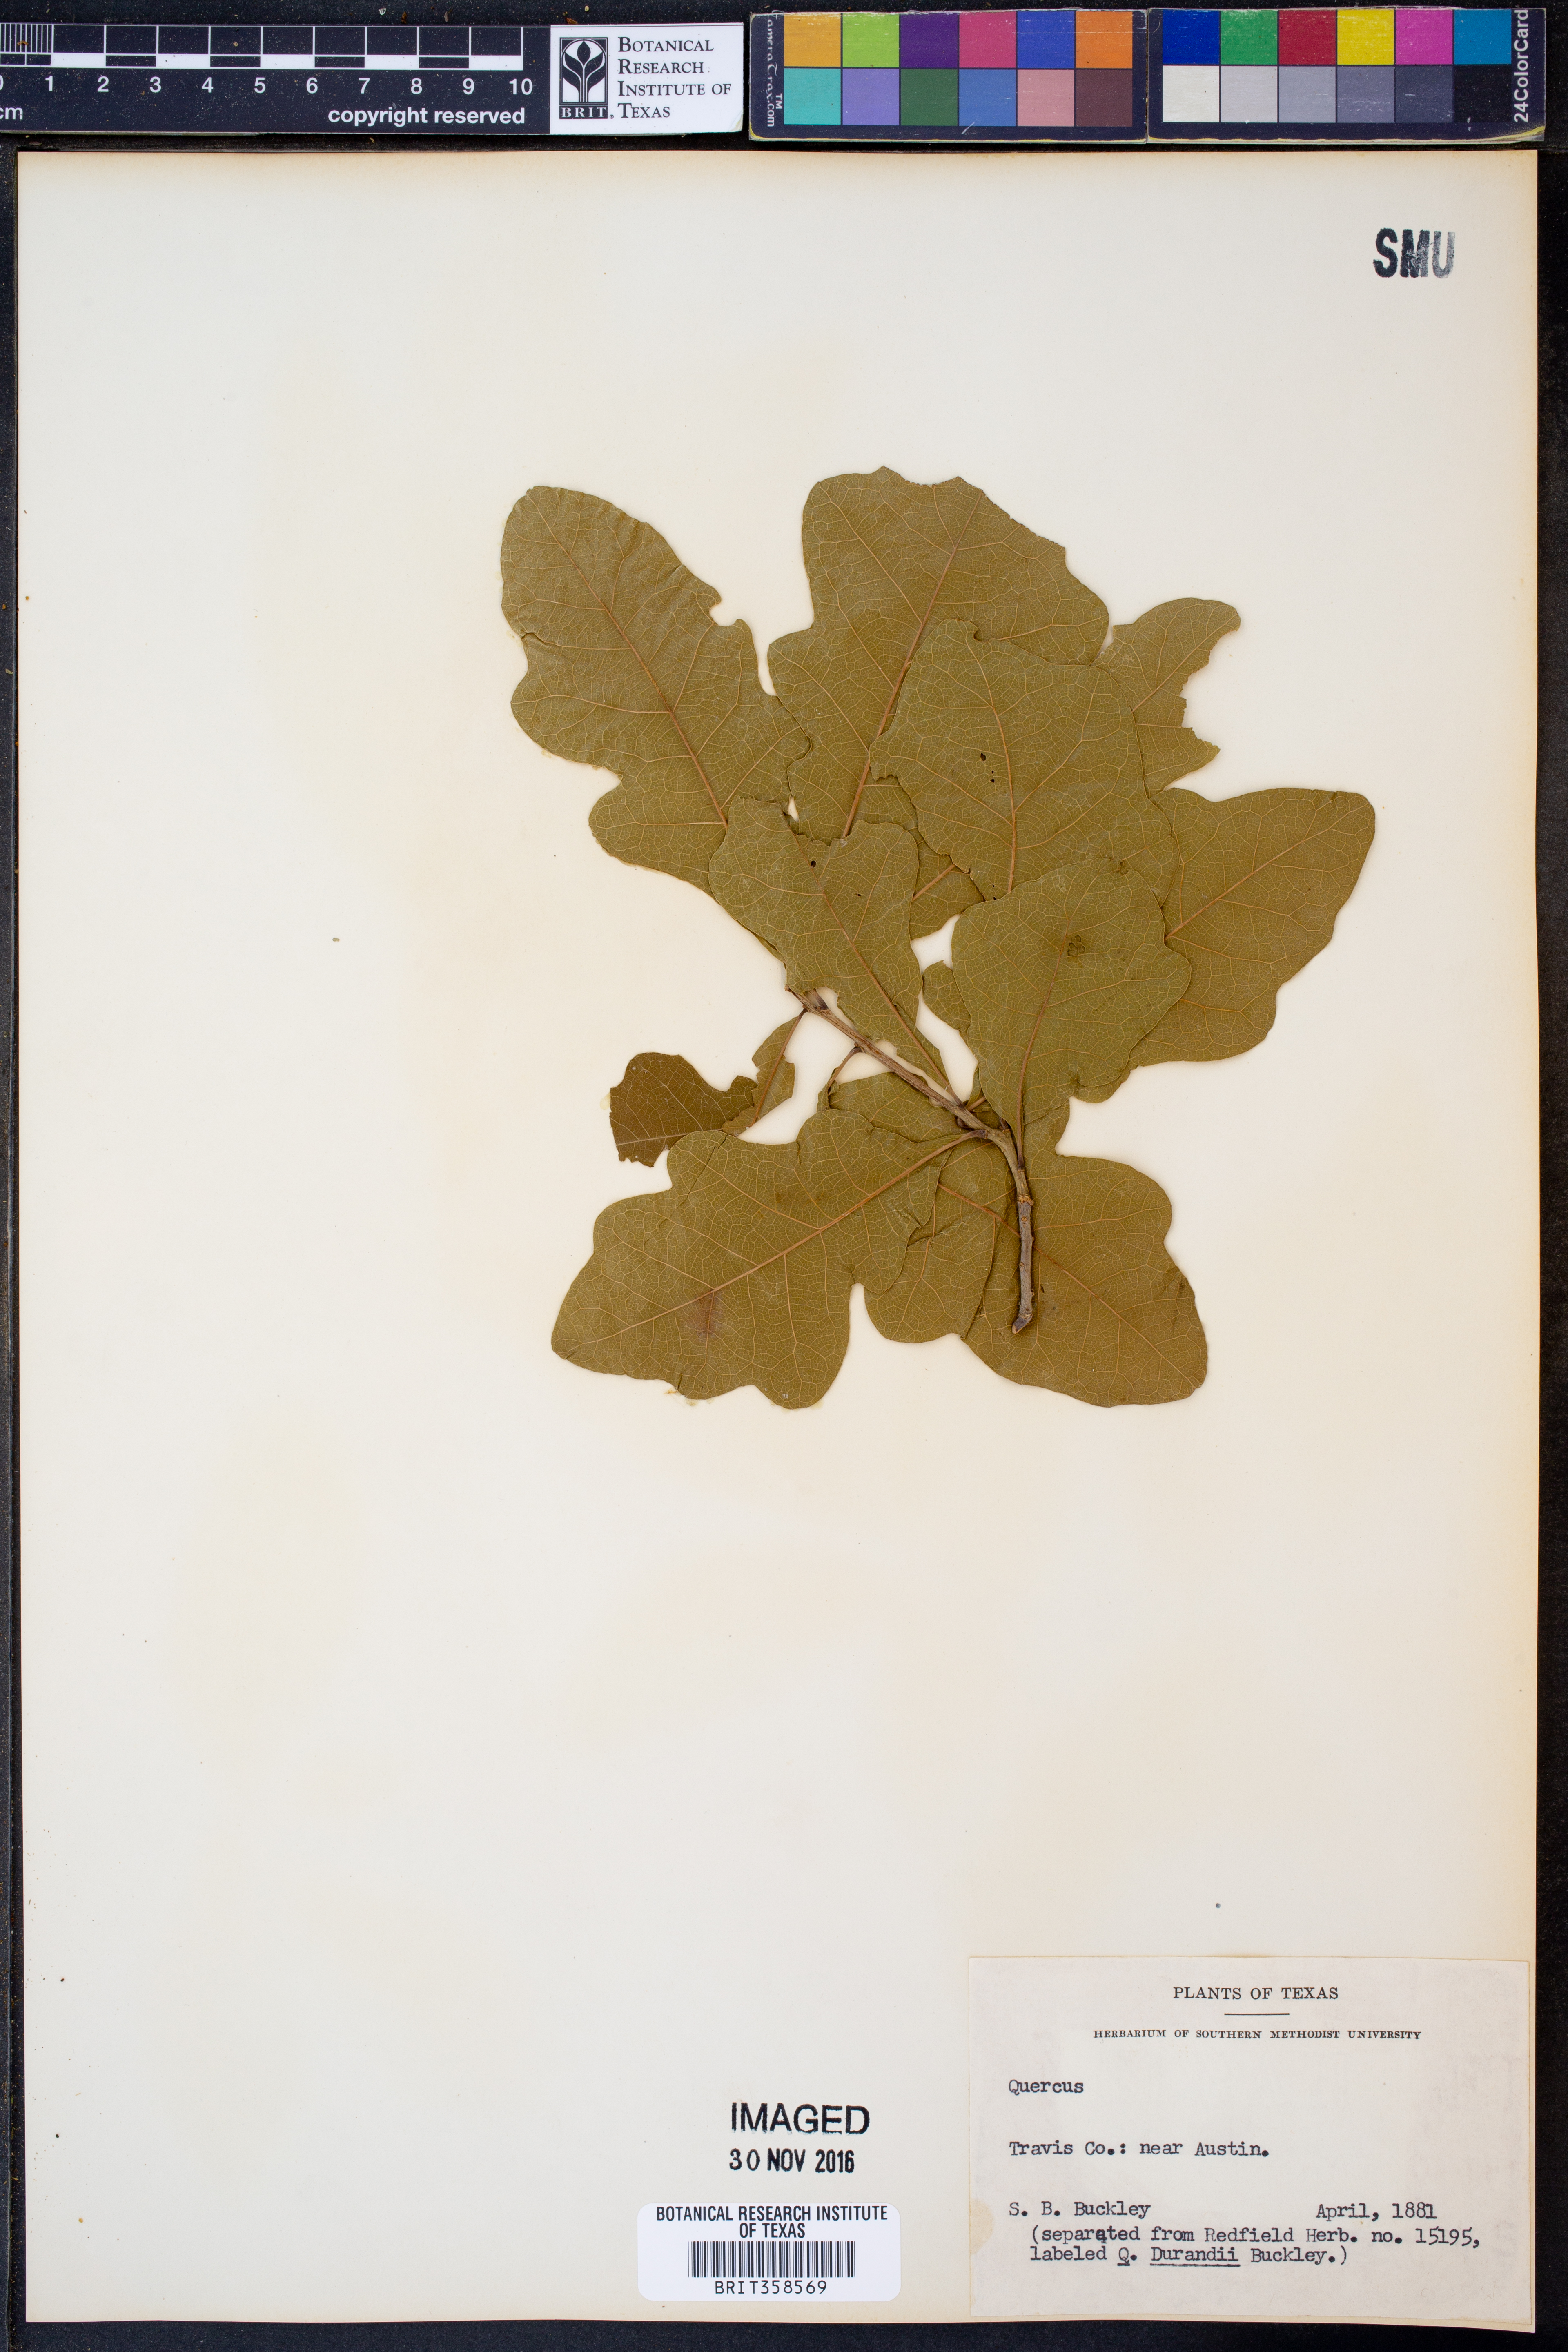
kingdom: Plantae
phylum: Tracheophyta
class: Magnoliopsida
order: Fagales
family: Fagaceae
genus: Quercus
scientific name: Quercus
